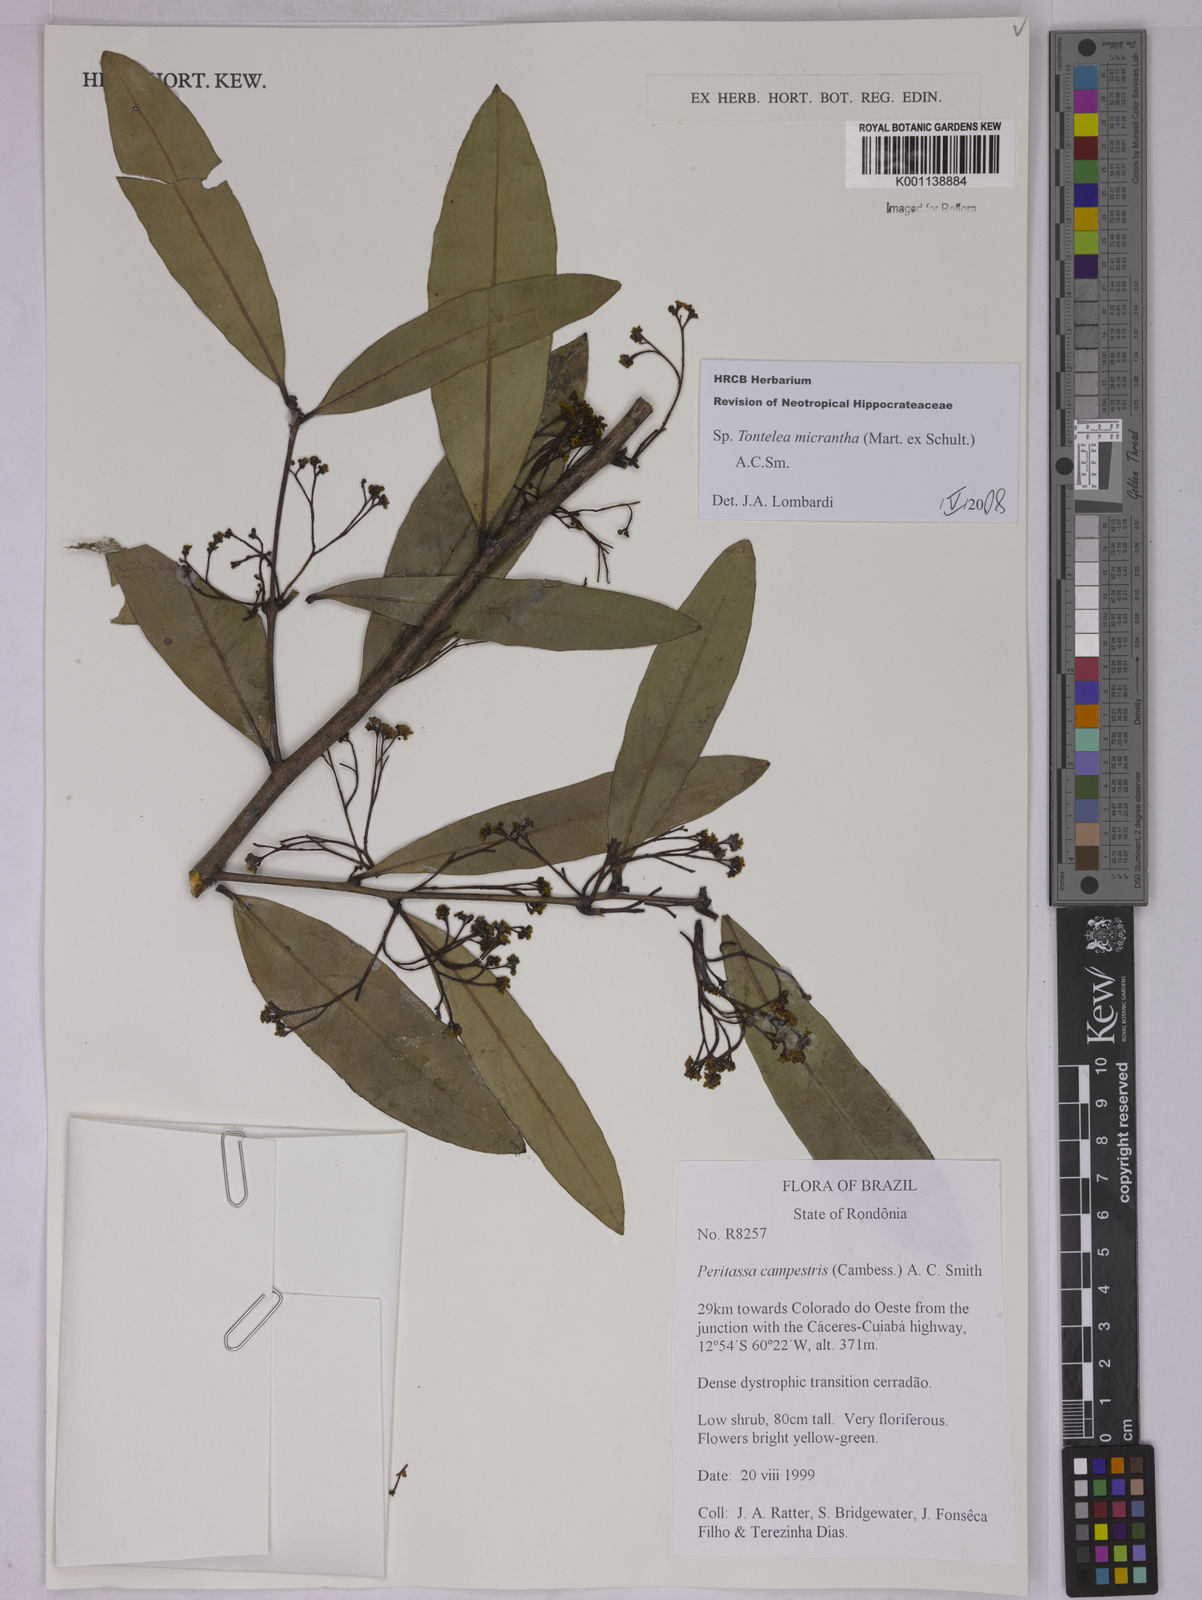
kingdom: Plantae
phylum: Tracheophyta
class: Magnoliopsida
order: Celastrales
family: Celastraceae
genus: Tontelea
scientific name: Tontelea micrantha
